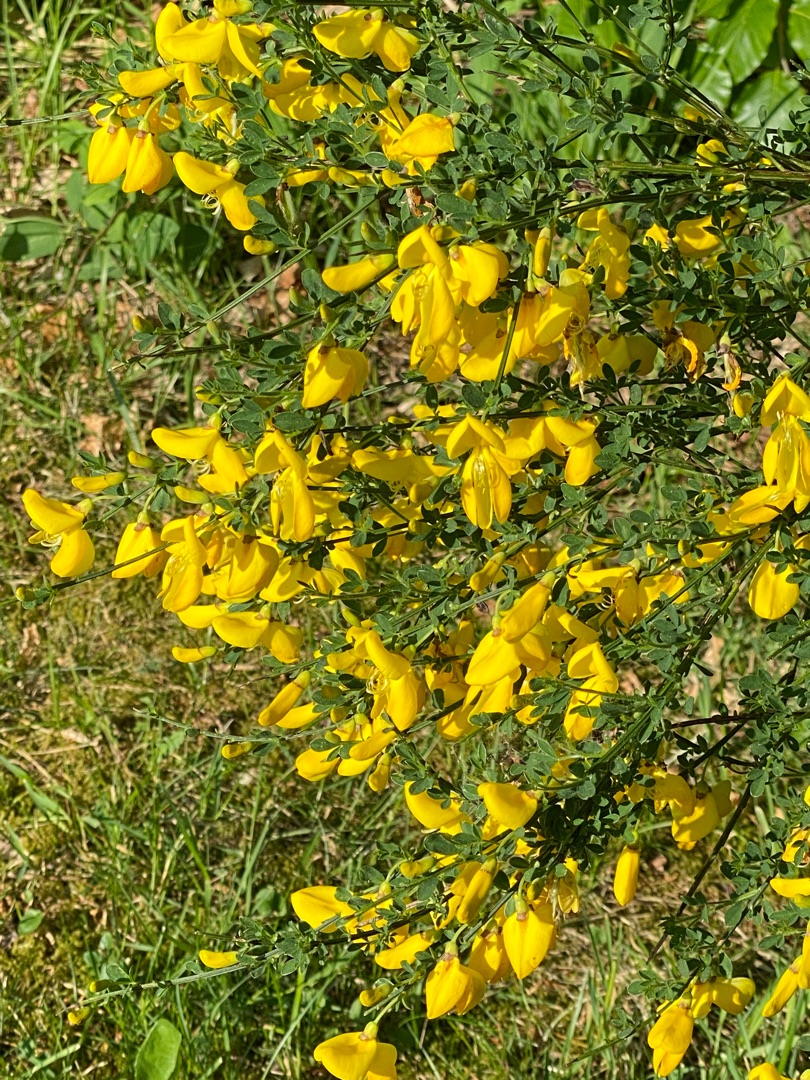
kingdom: Plantae
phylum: Tracheophyta
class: Magnoliopsida
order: Fabales
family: Fabaceae
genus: Cytisus
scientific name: Cytisus scoparius
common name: Almindelig gyvel
